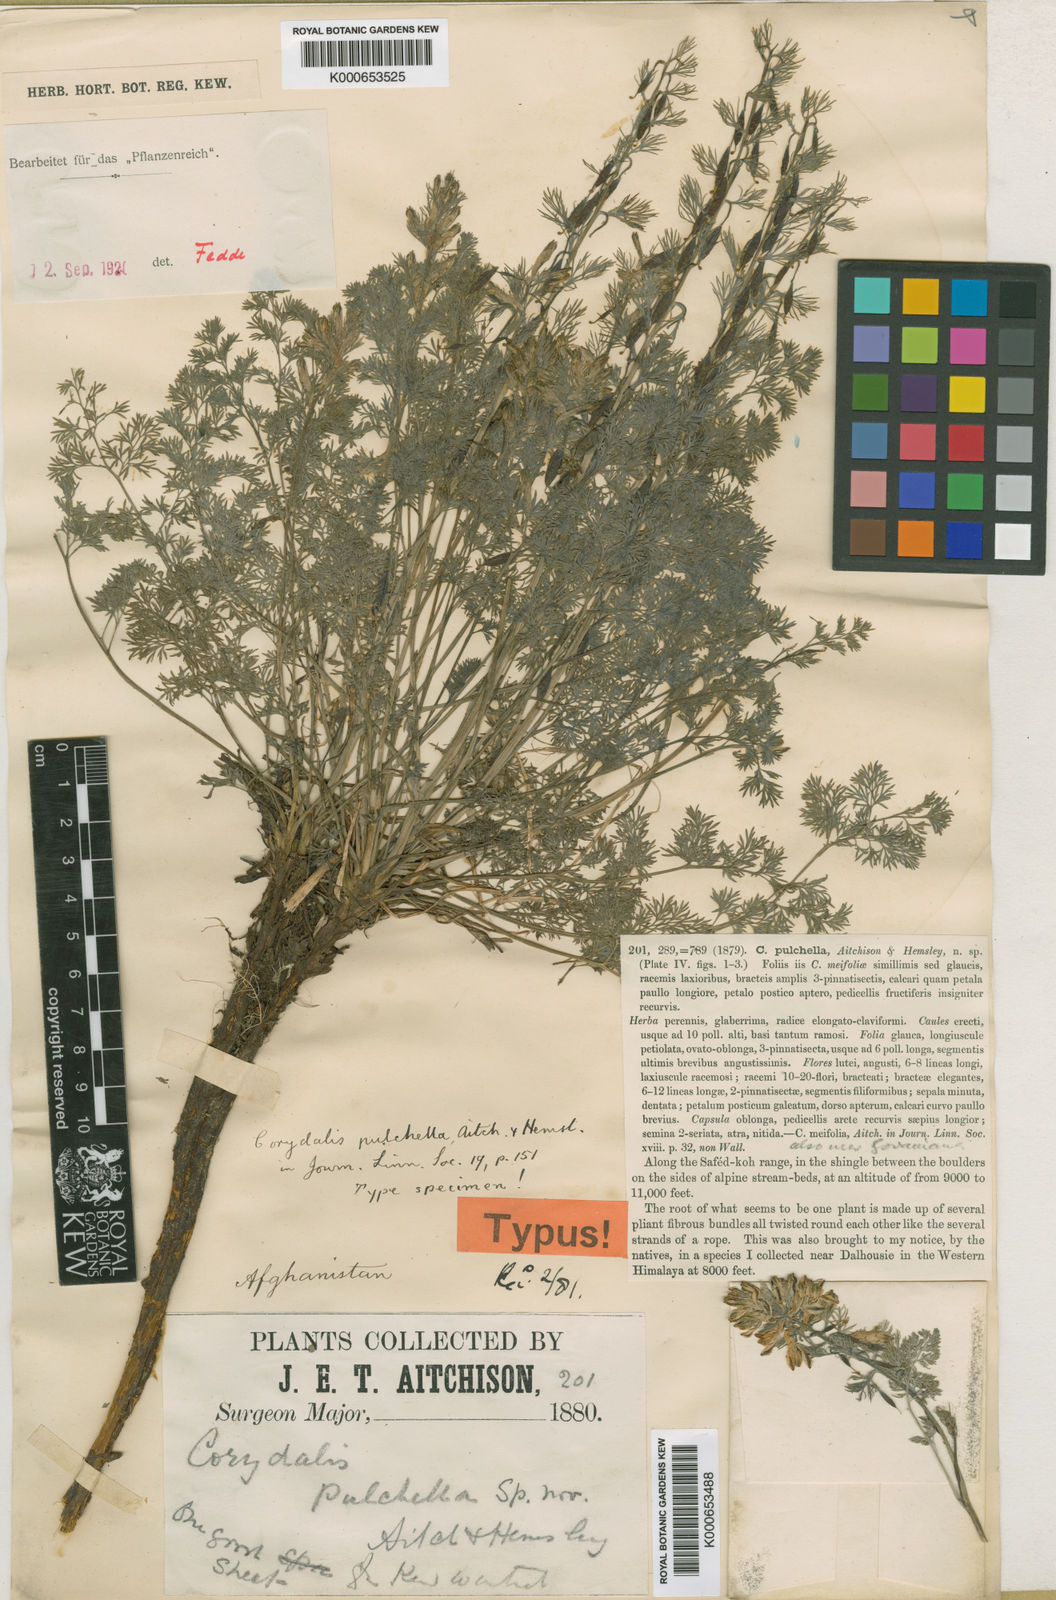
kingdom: Plantae
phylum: Tracheophyta
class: Magnoliopsida
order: Ranunculales
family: Papaveraceae
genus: Corydalis
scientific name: Corydalis pulchella
